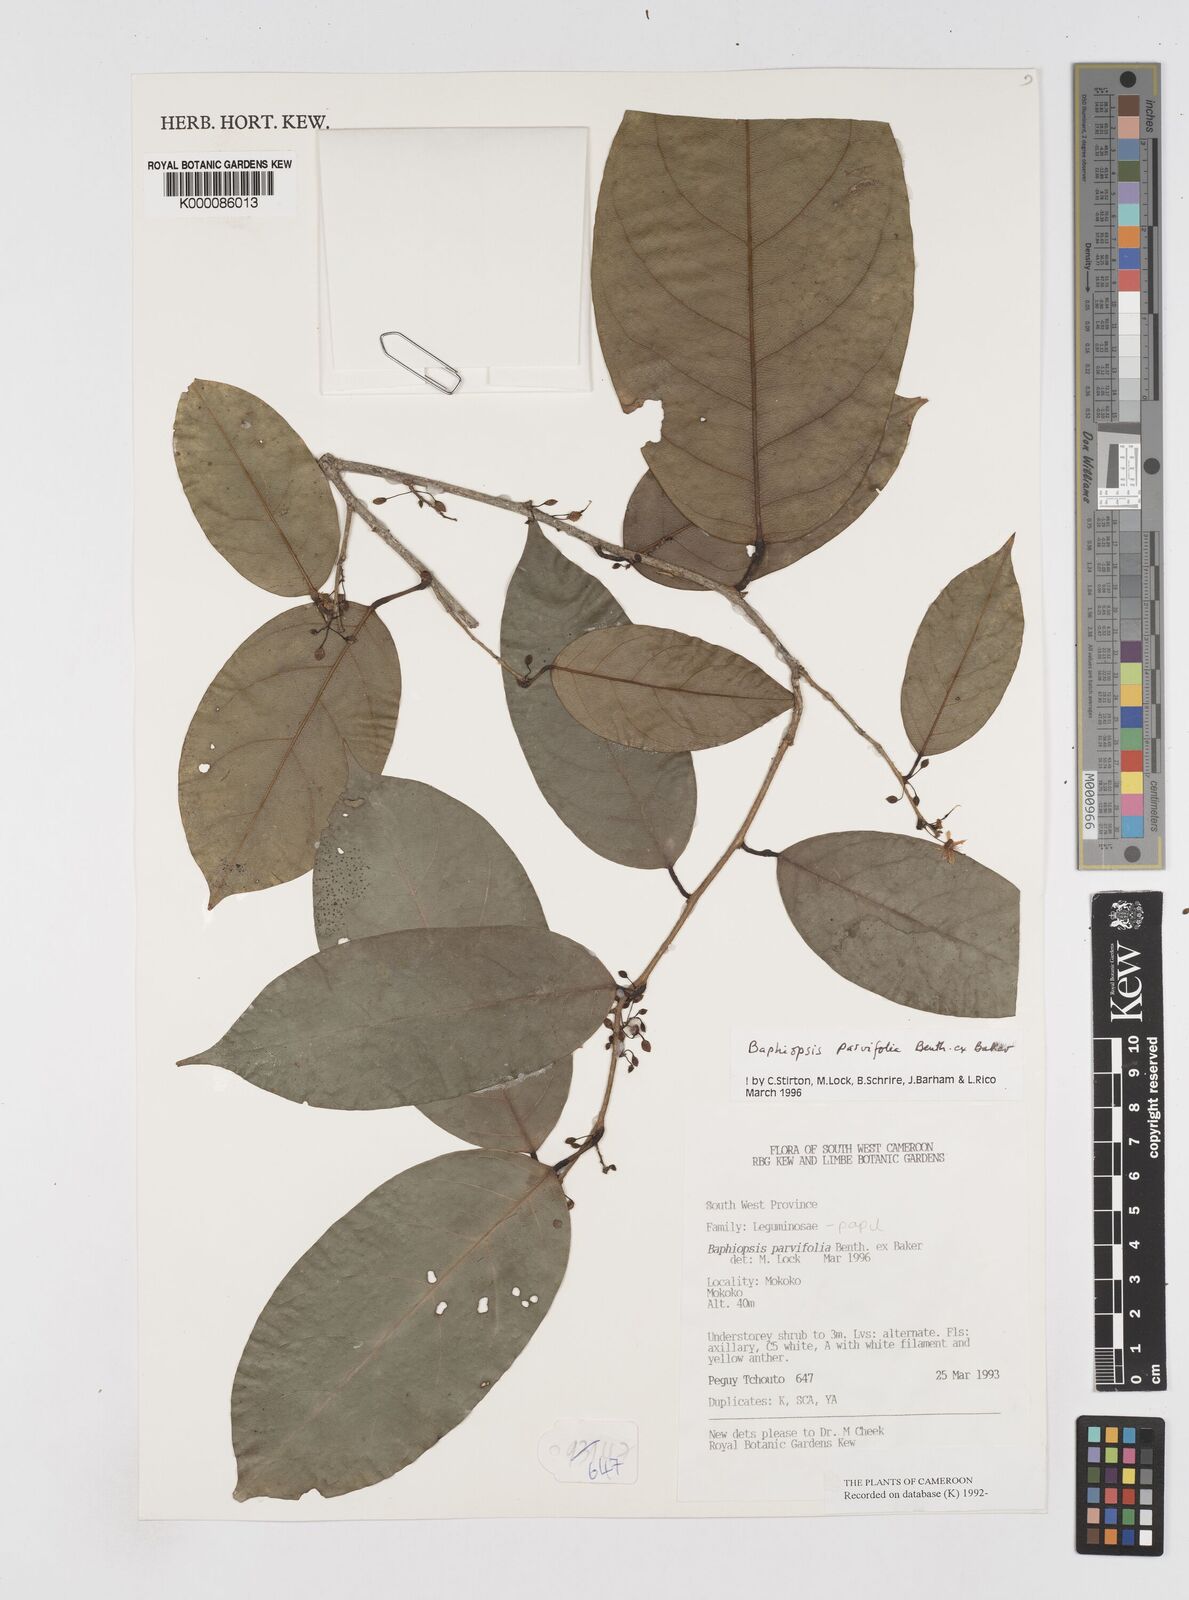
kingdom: Plantae
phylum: Tracheophyta
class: Magnoliopsida
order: Fabales
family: Fabaceae
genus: Baphiopsis
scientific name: Baphiopsis parviflora
